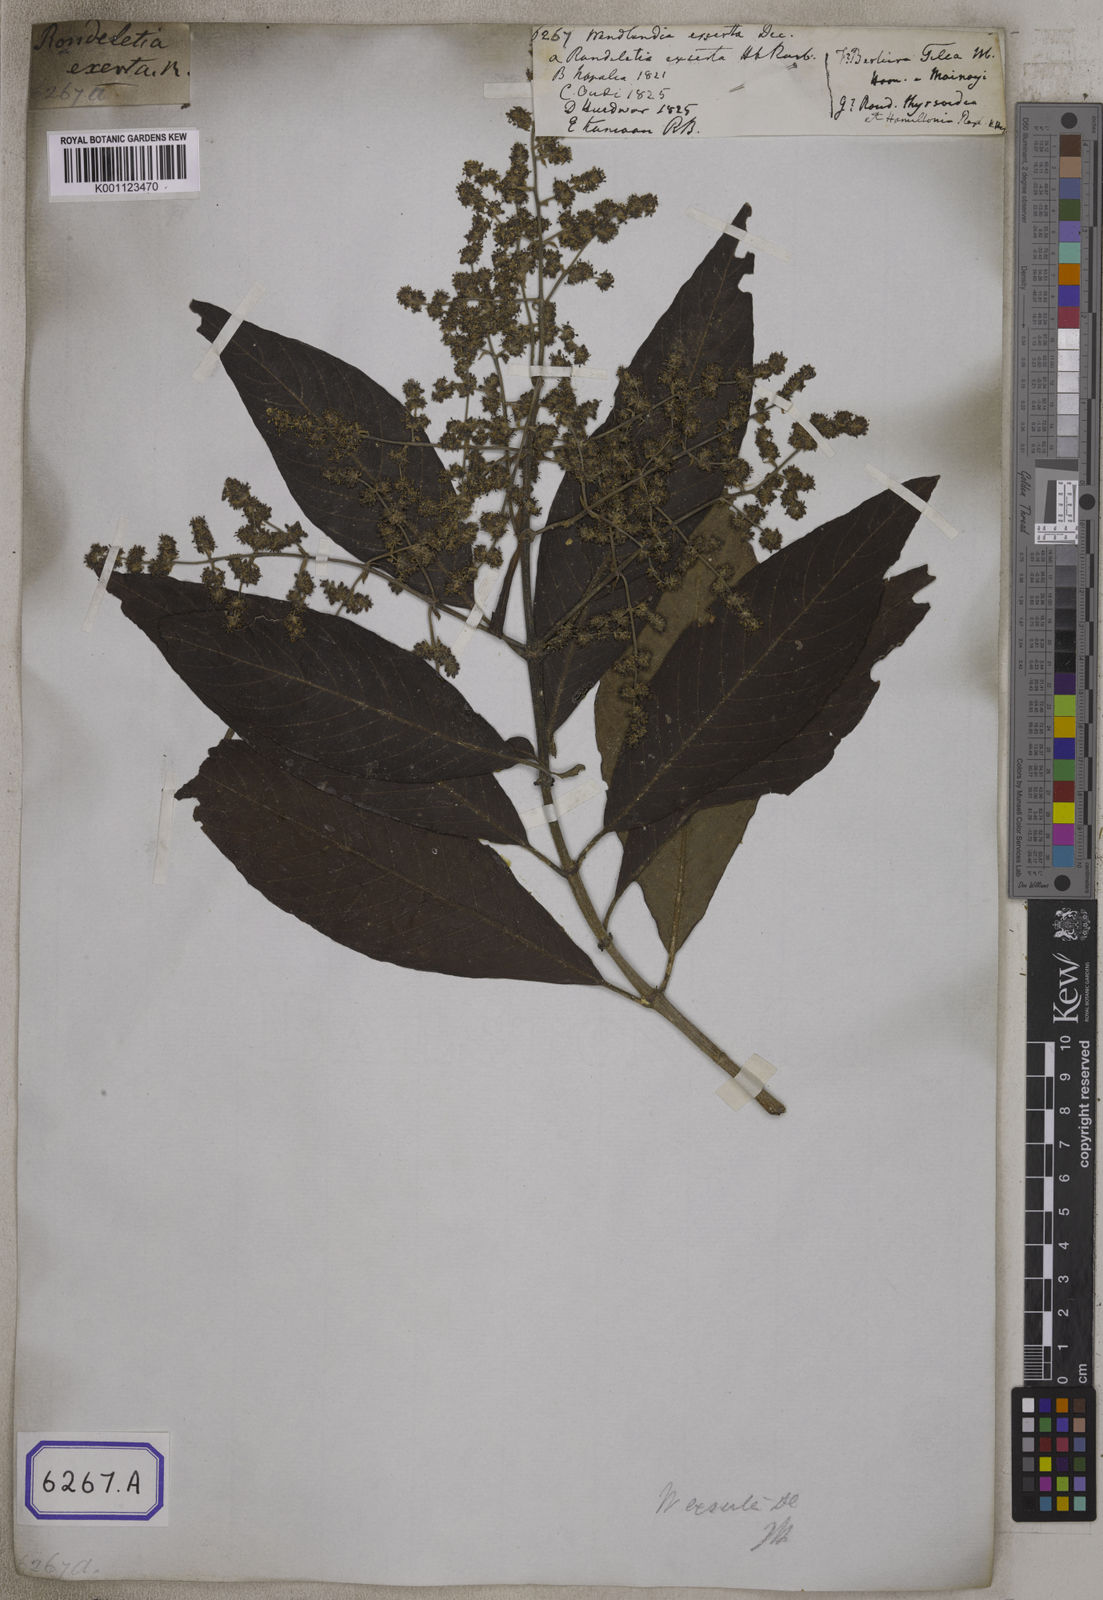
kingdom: Plantae
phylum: Tracheophyta
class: Magnoliopsida
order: Gentianales
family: Rubiaceae
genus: Wendlandia
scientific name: Wendlandia heynei
